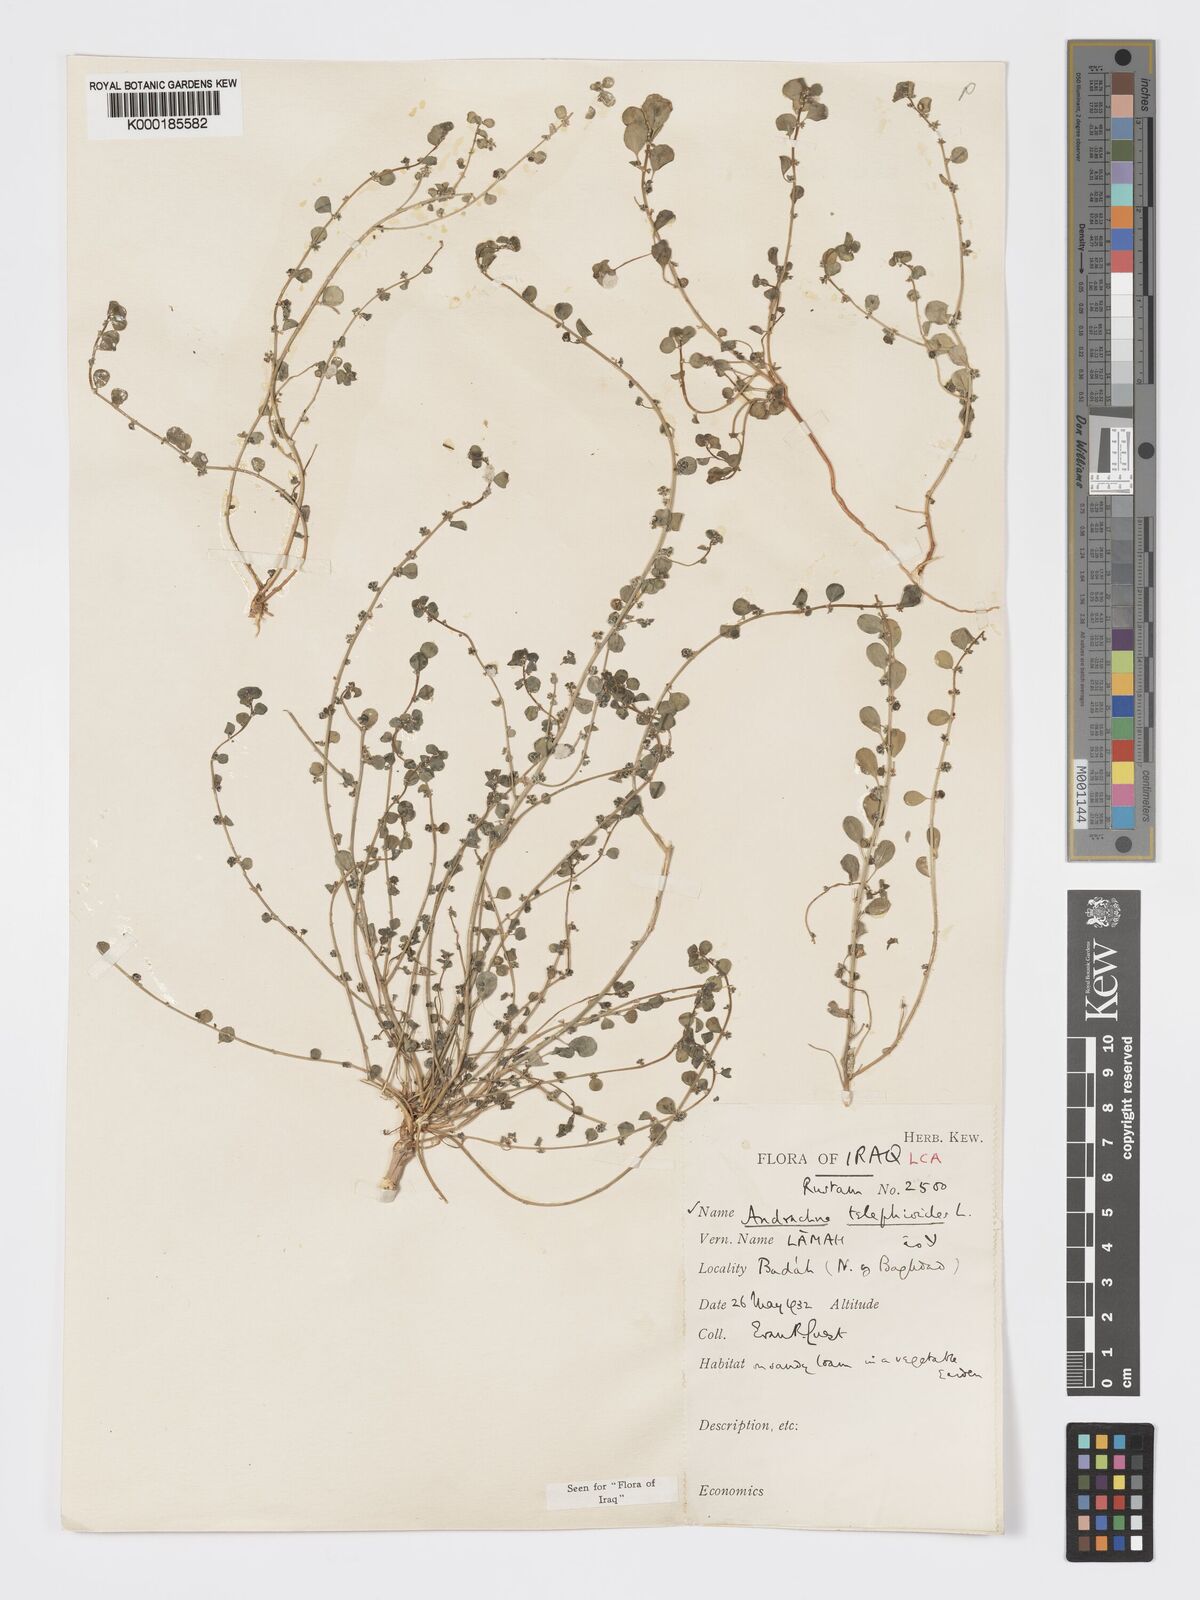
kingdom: Plantae
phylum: Tracheophyta
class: Magnoliopsida
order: Malpighiales
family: Phyllanthaceae
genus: Andrachne
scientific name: Andrachne telephioides
